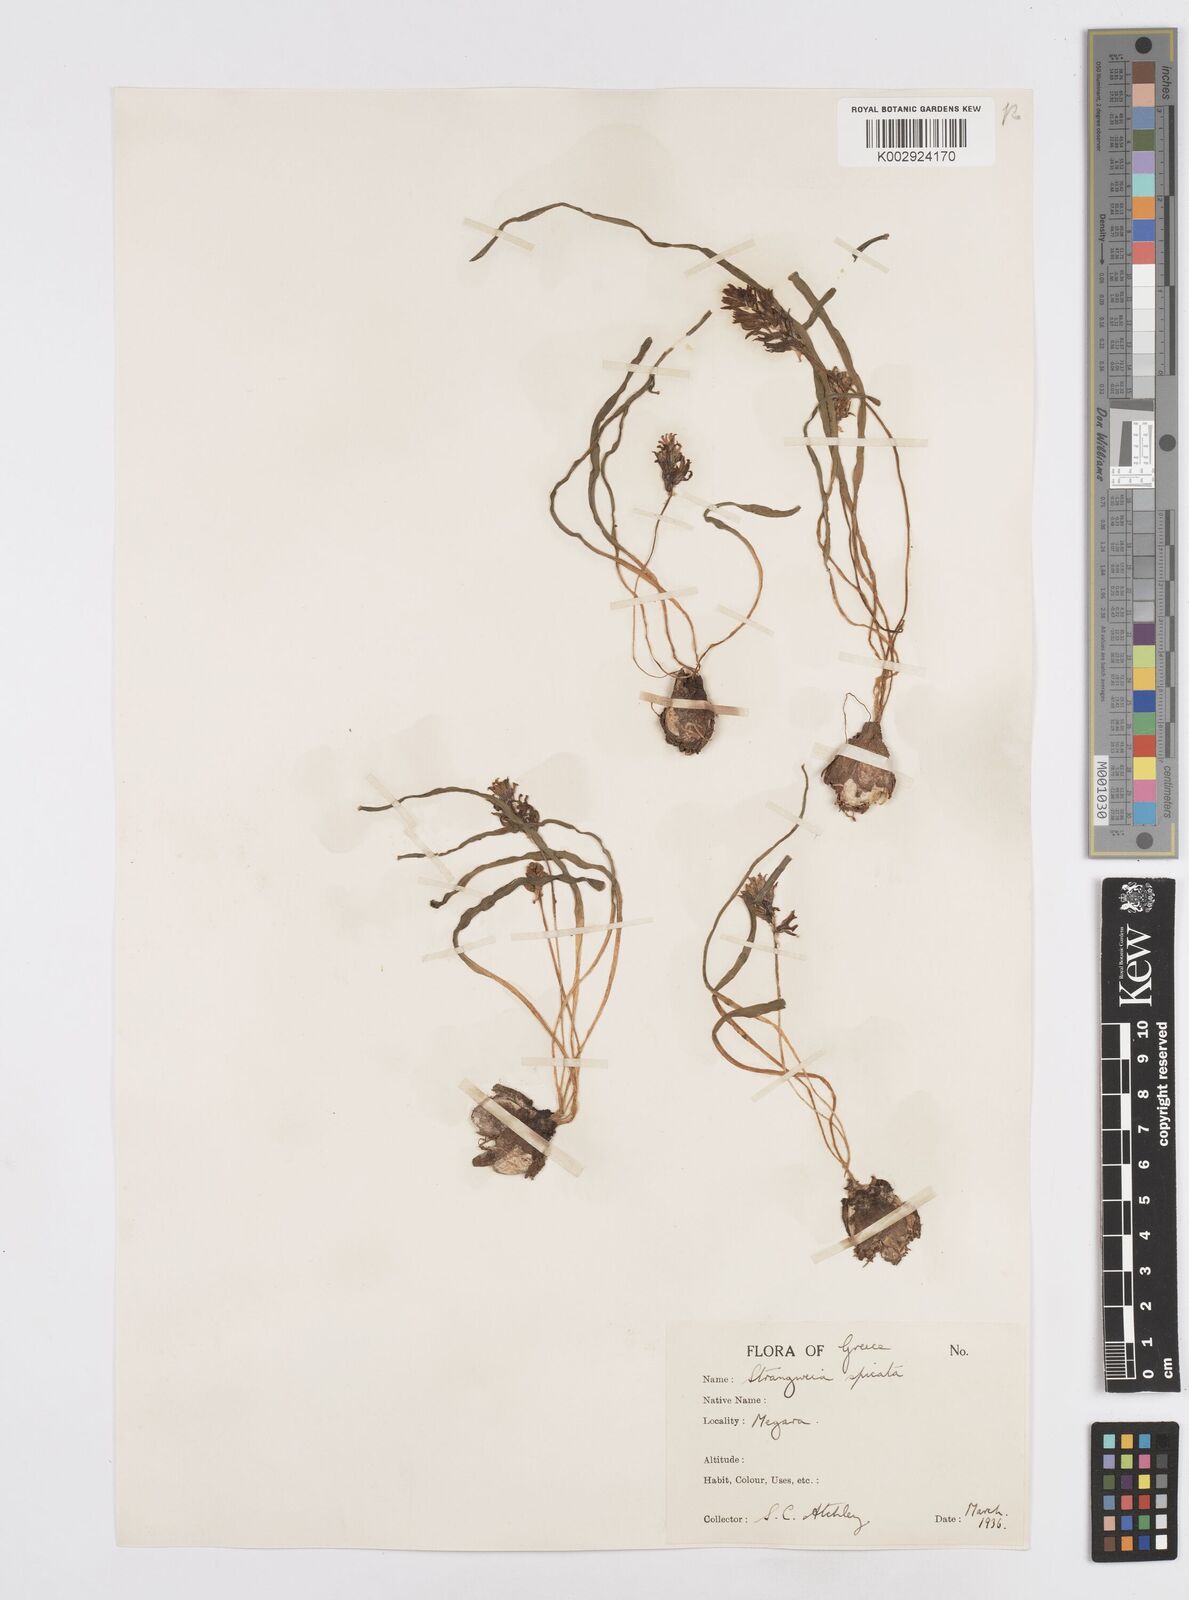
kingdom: Plantae
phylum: Tracheophyta
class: Liliopsida
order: Asparagales
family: Asparagaceae
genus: Bellevalia
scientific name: Bellevalia hyacinthoides
